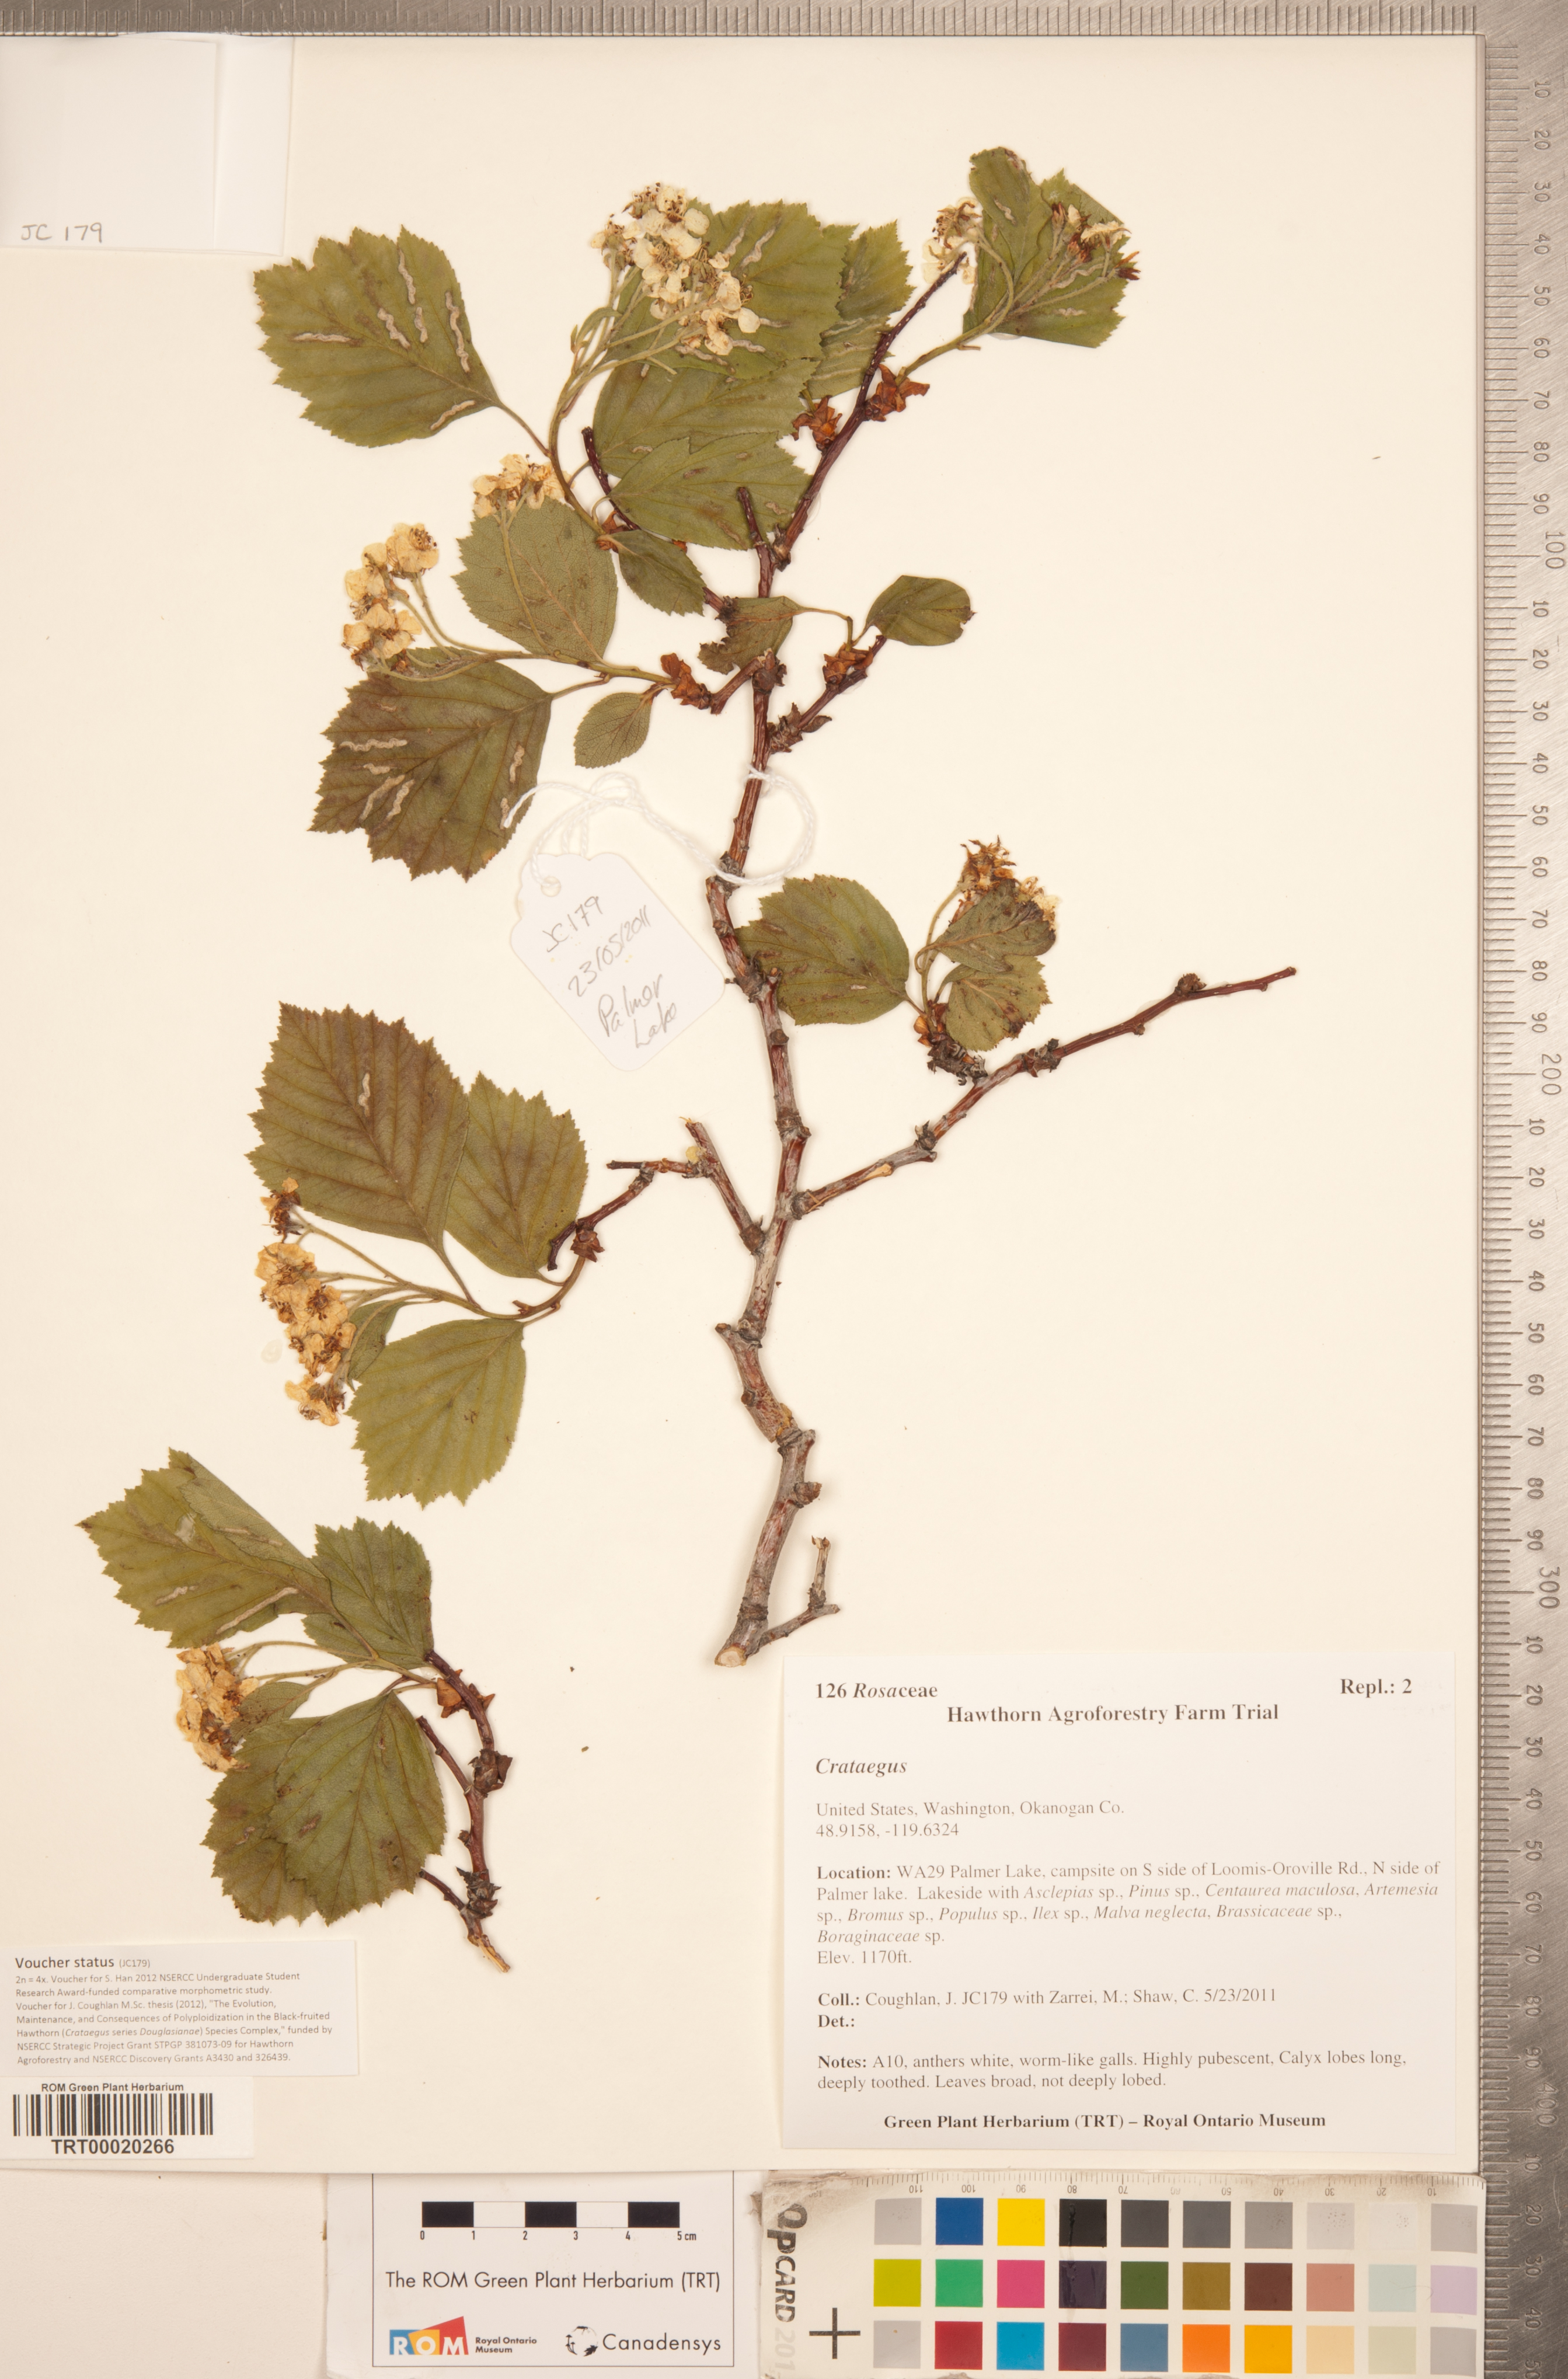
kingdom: Plantae
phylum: Tracheophyta
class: Magnoliopsida
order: Rosales
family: Rosaceae
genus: Crataegus
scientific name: Crataegus macracantha
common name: Large-thorn hawthorn
